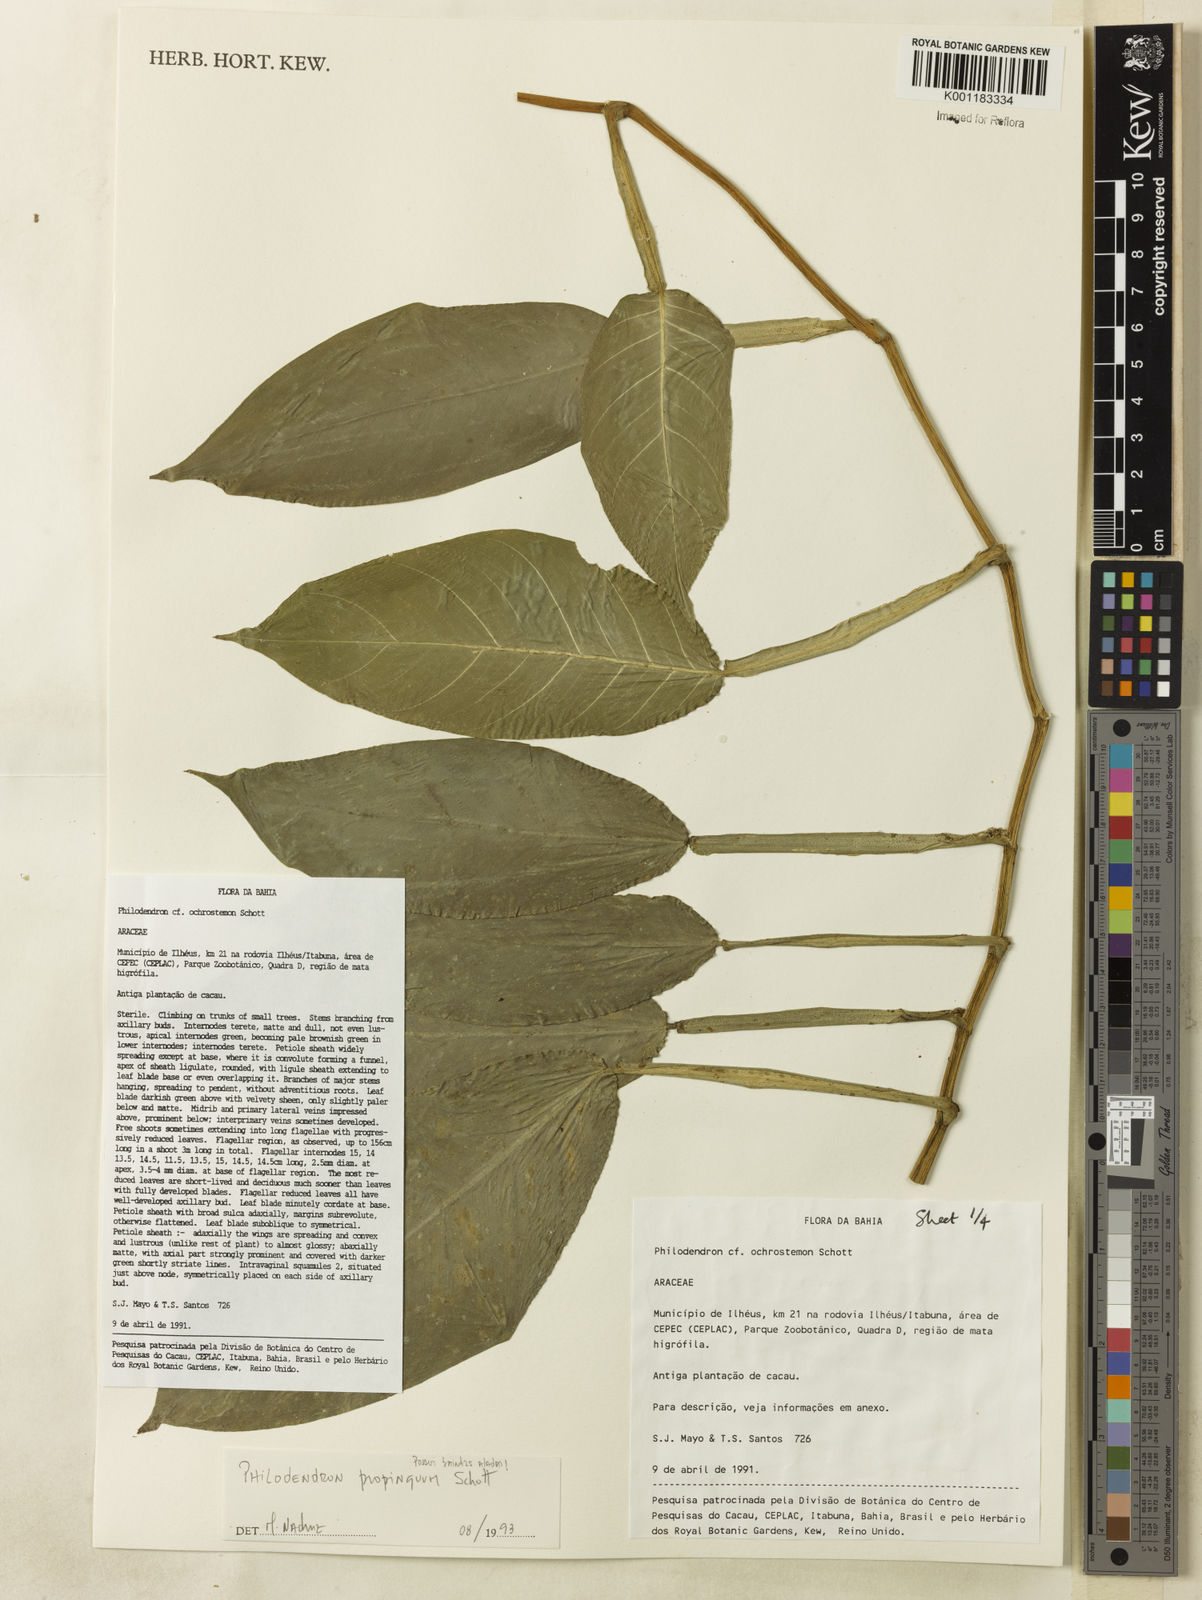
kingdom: Plantae
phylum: Tracheophyta
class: Liliopsida
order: Alismatales
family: Araceae
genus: Philodendron
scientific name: Philodendron propinquum
